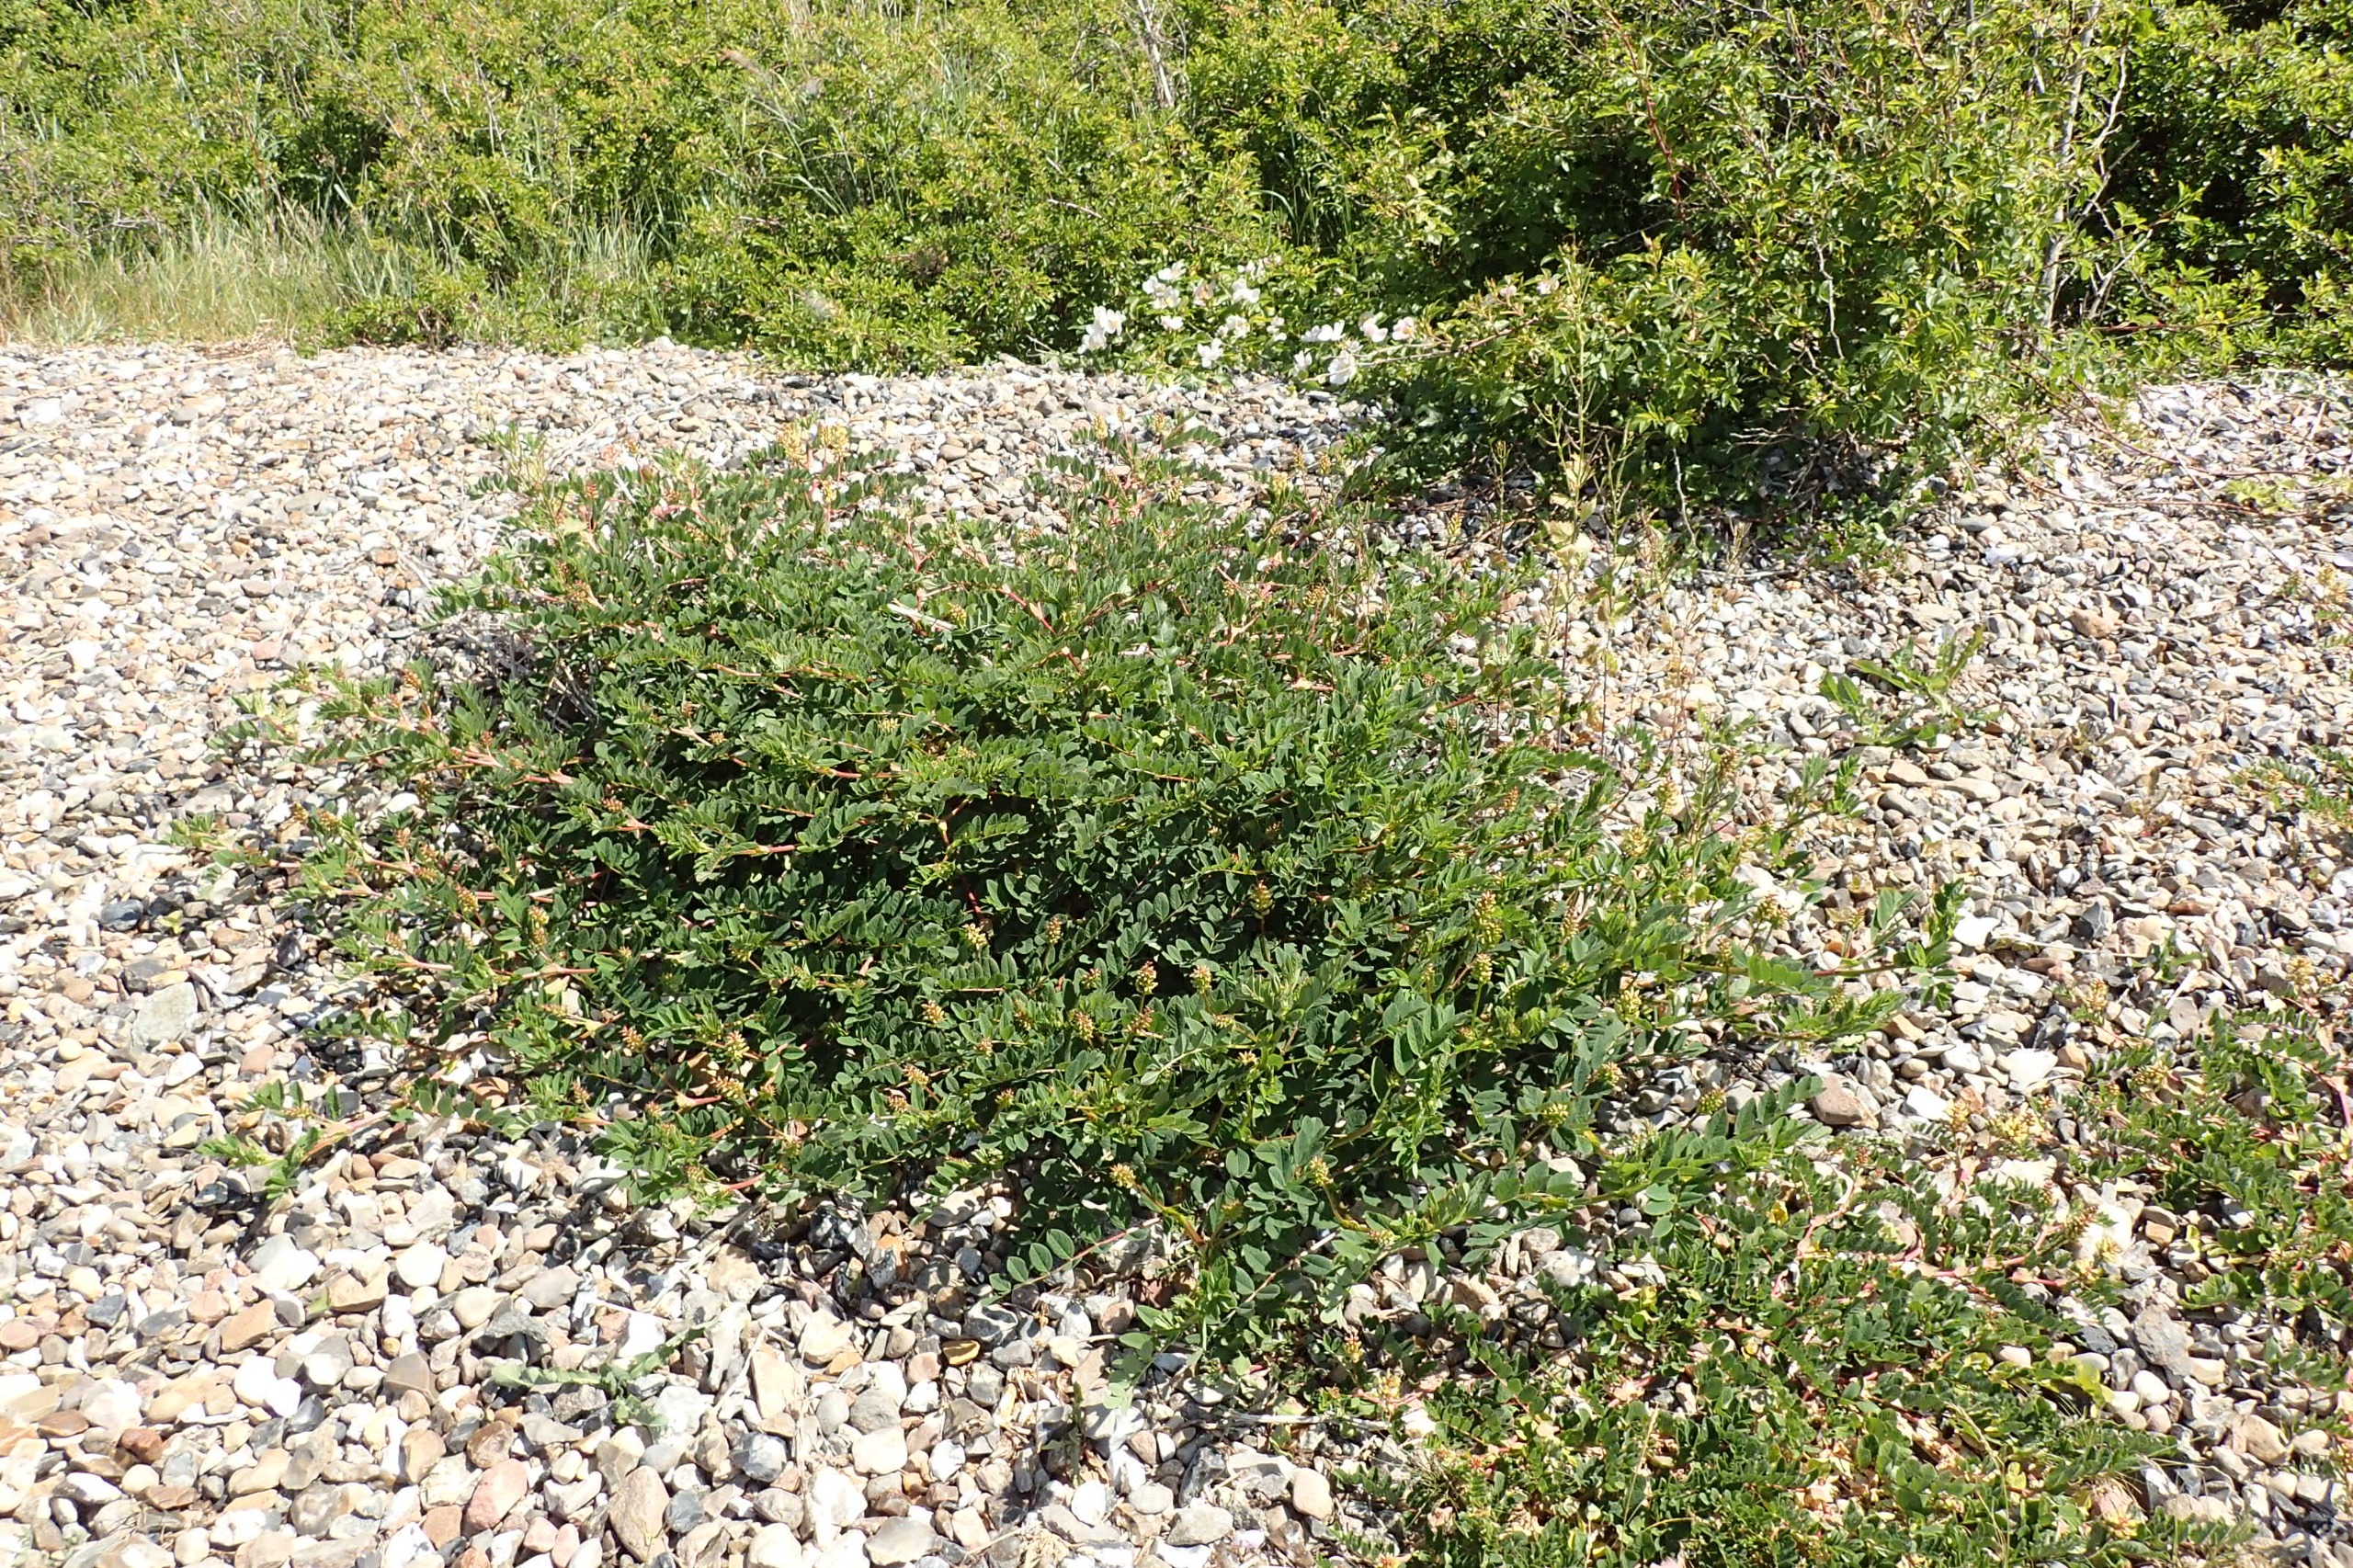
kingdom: Plantae
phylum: Tracheophyta
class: Magnoliopsida
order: Fabales
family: Fabaceae
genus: Astragalus
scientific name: Astragalus glycyphyllos
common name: Sød astragel
